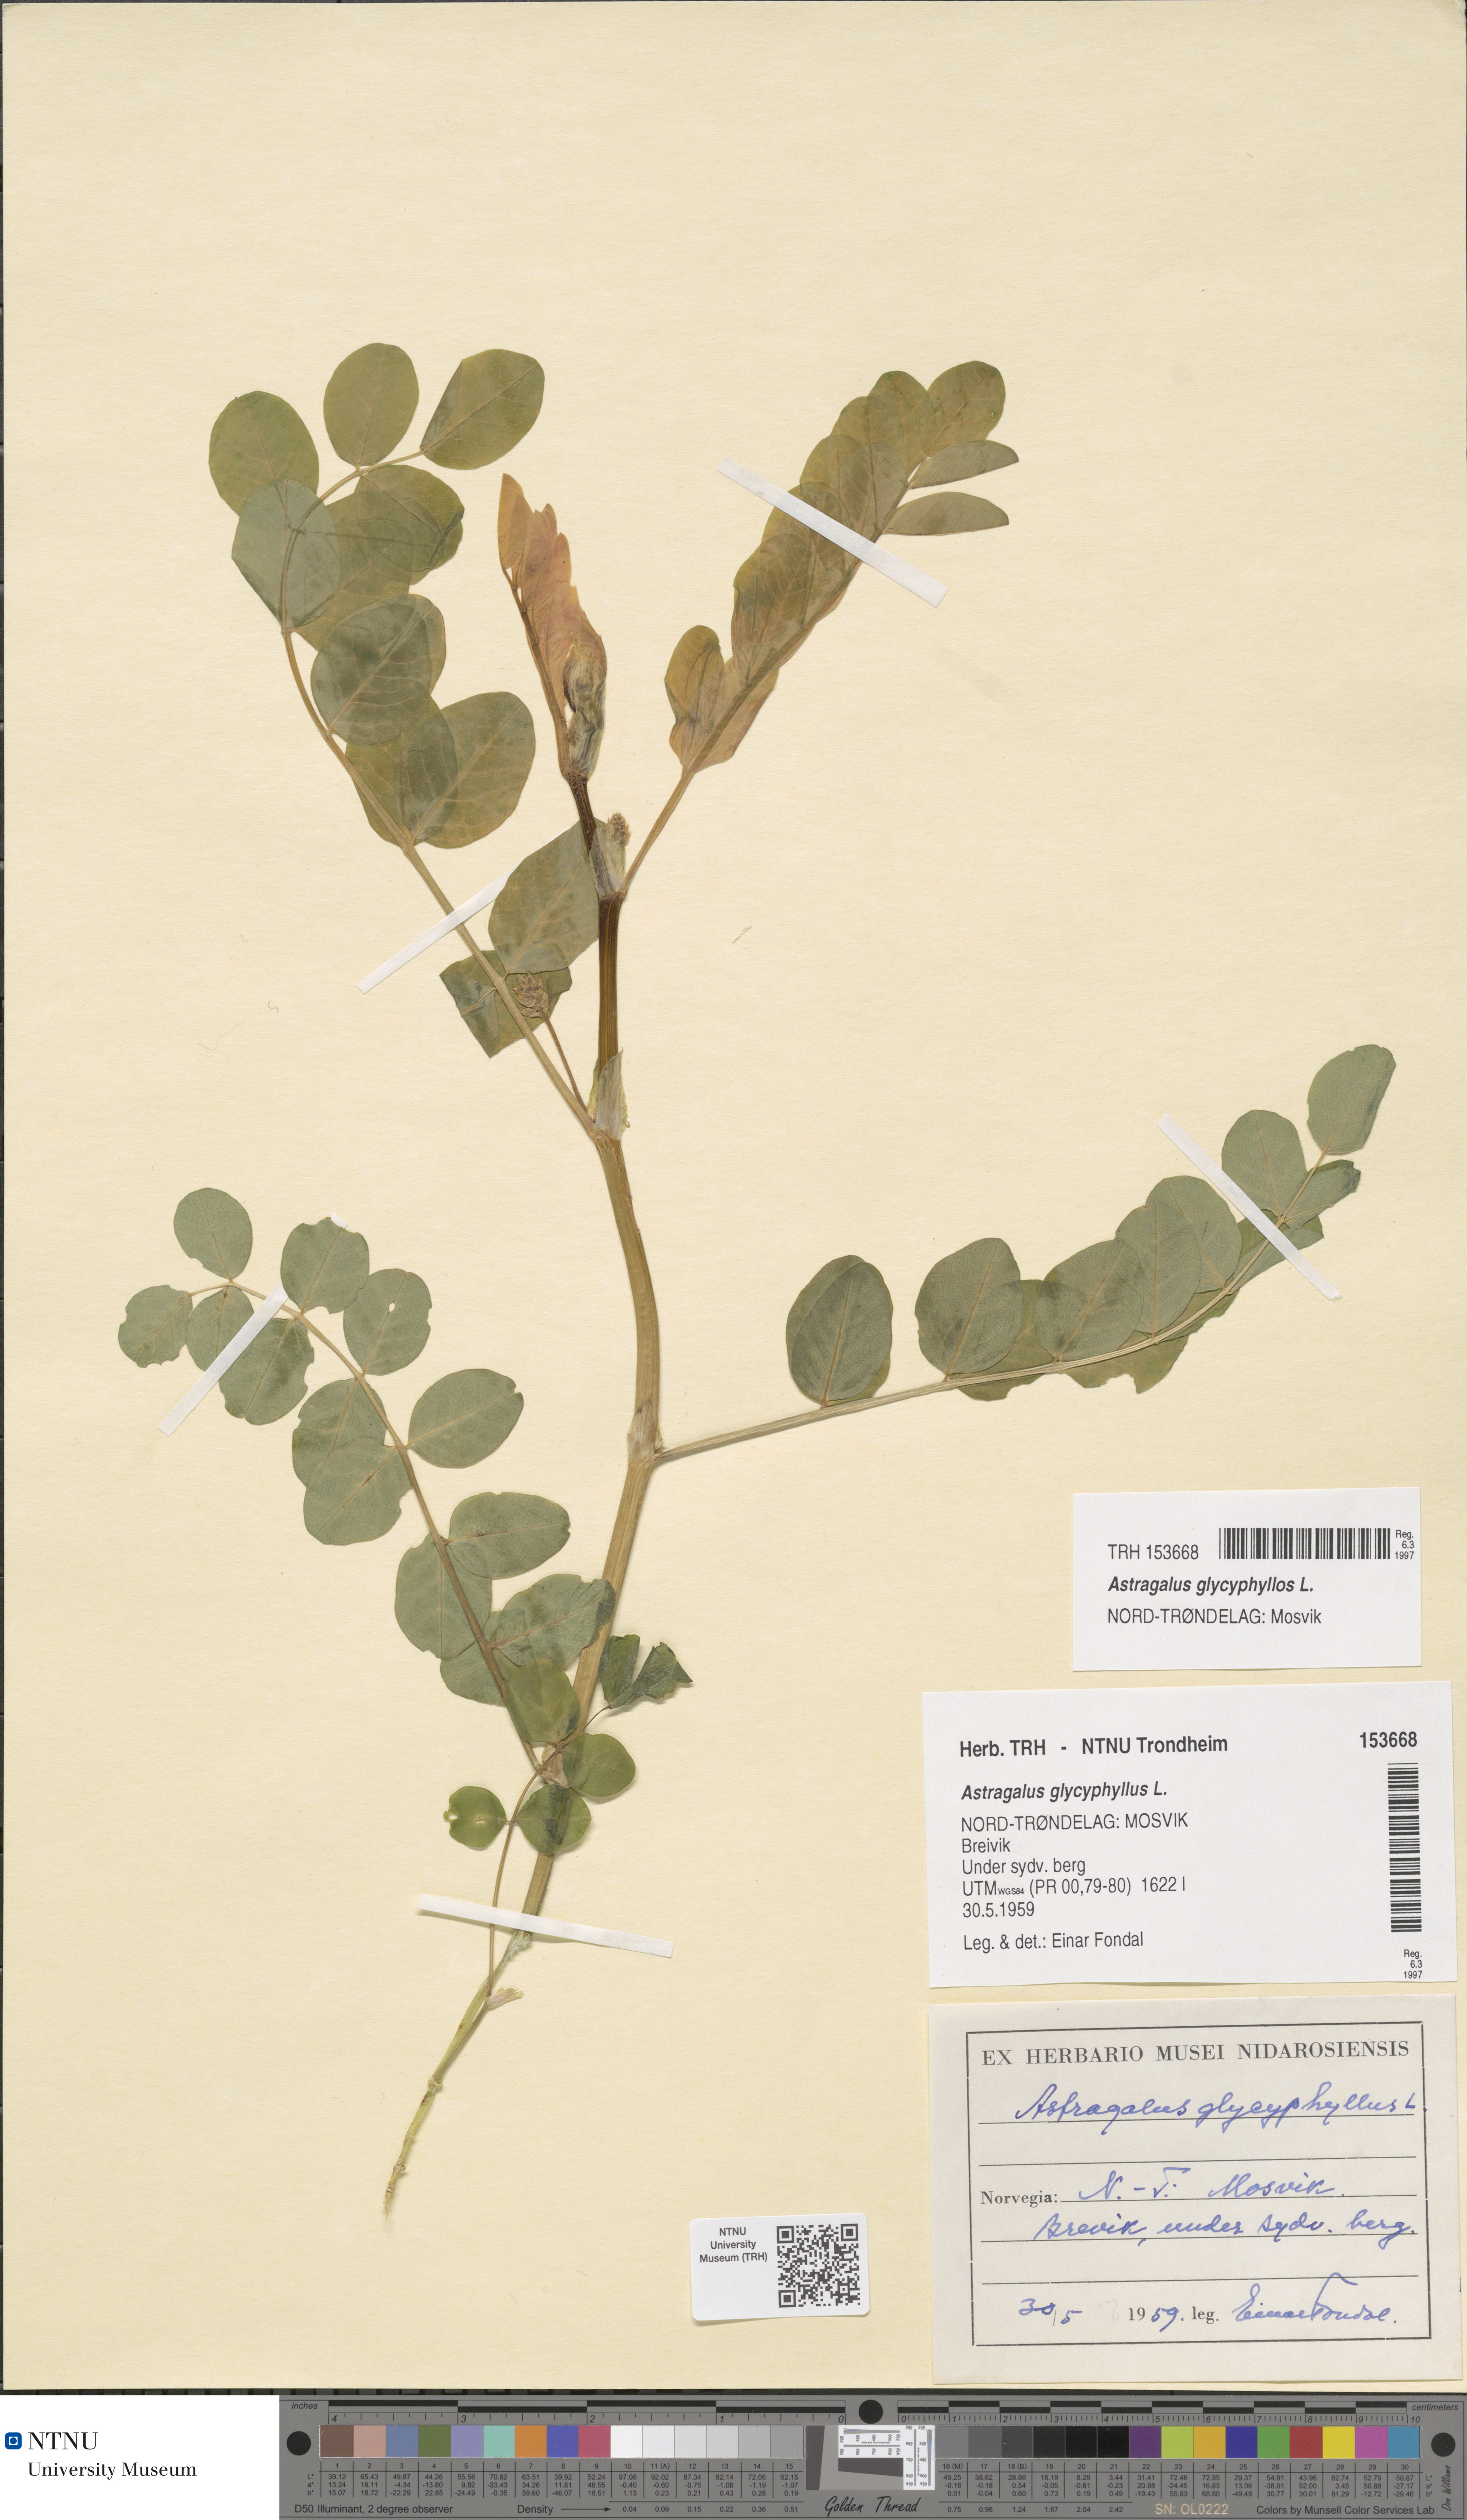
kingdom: Plantae
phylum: Tracheophyta
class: Magnoliopsida
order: Fabales
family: Fabaceae
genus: Astragalus
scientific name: Astragalus glycyphyllos
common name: Wild liquorice
